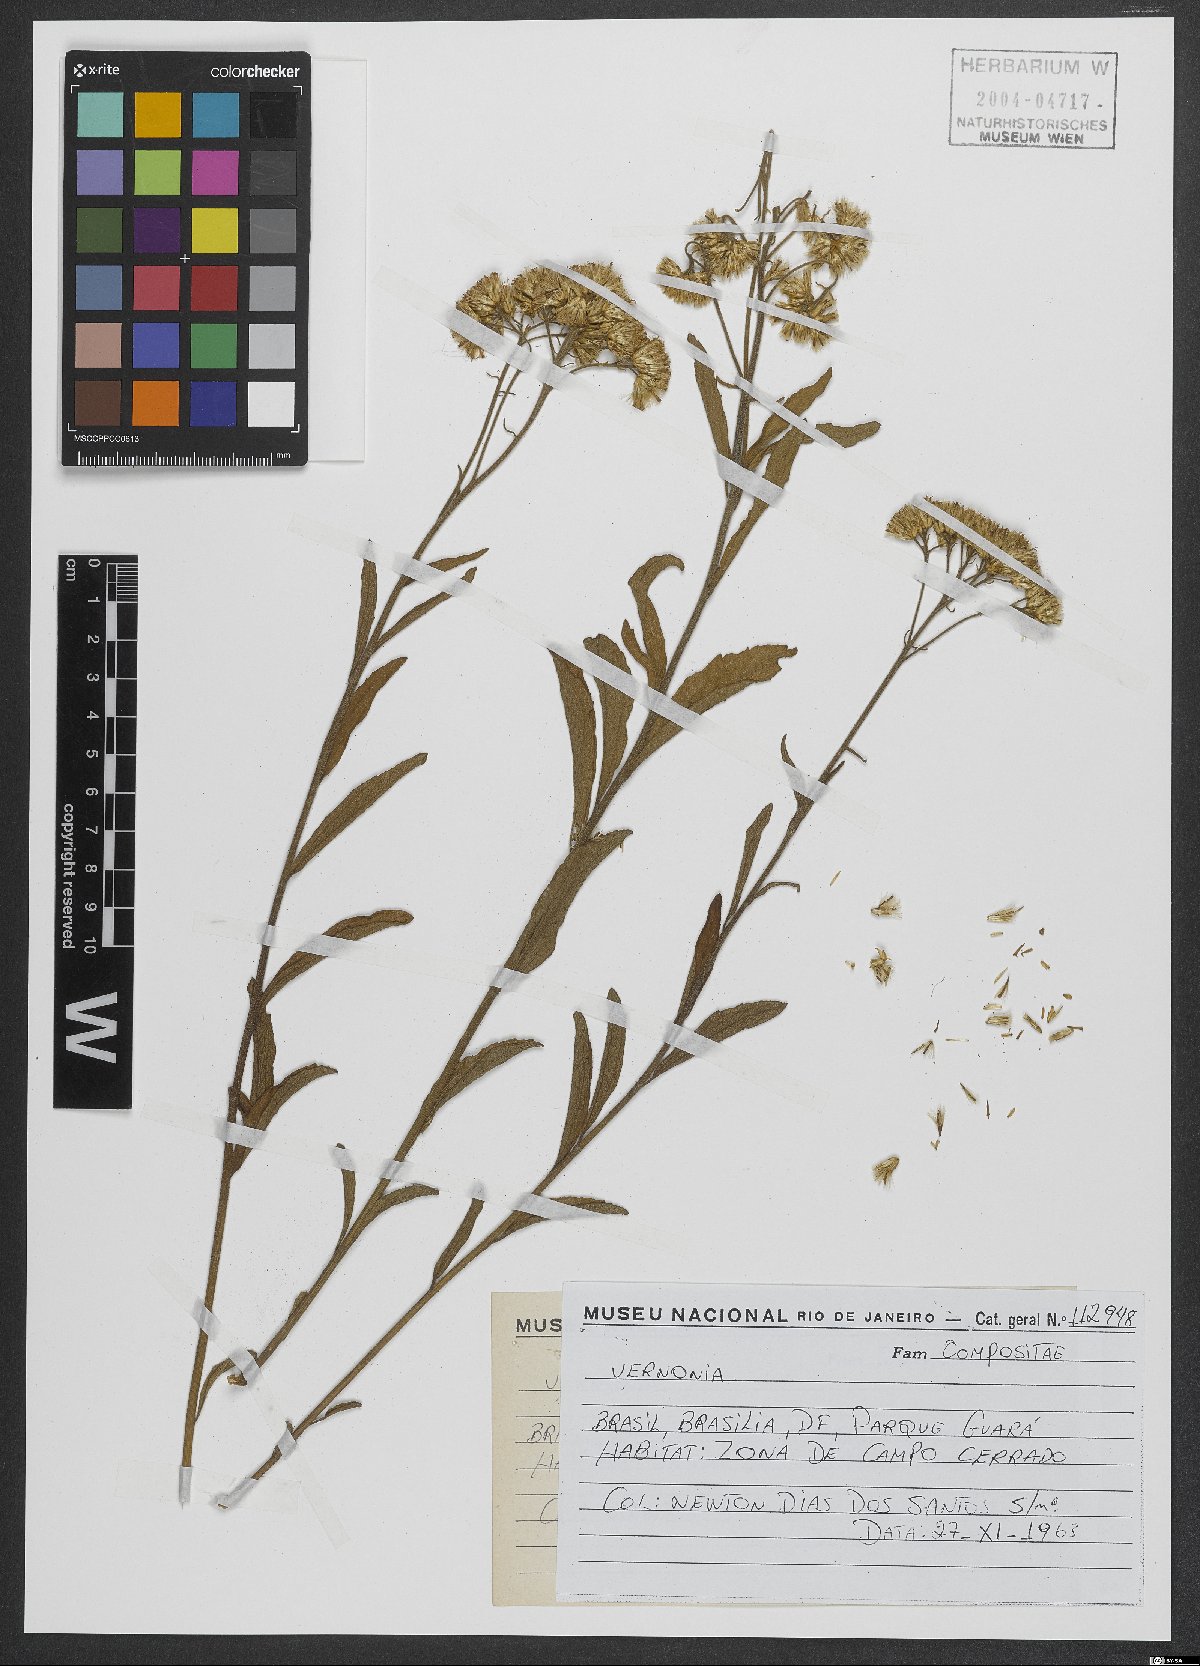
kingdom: Plantae
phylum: Tracheophyta
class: Magnoliopsida
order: Asterales
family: Asteraceae
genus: Vernonia
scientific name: Vernonia
